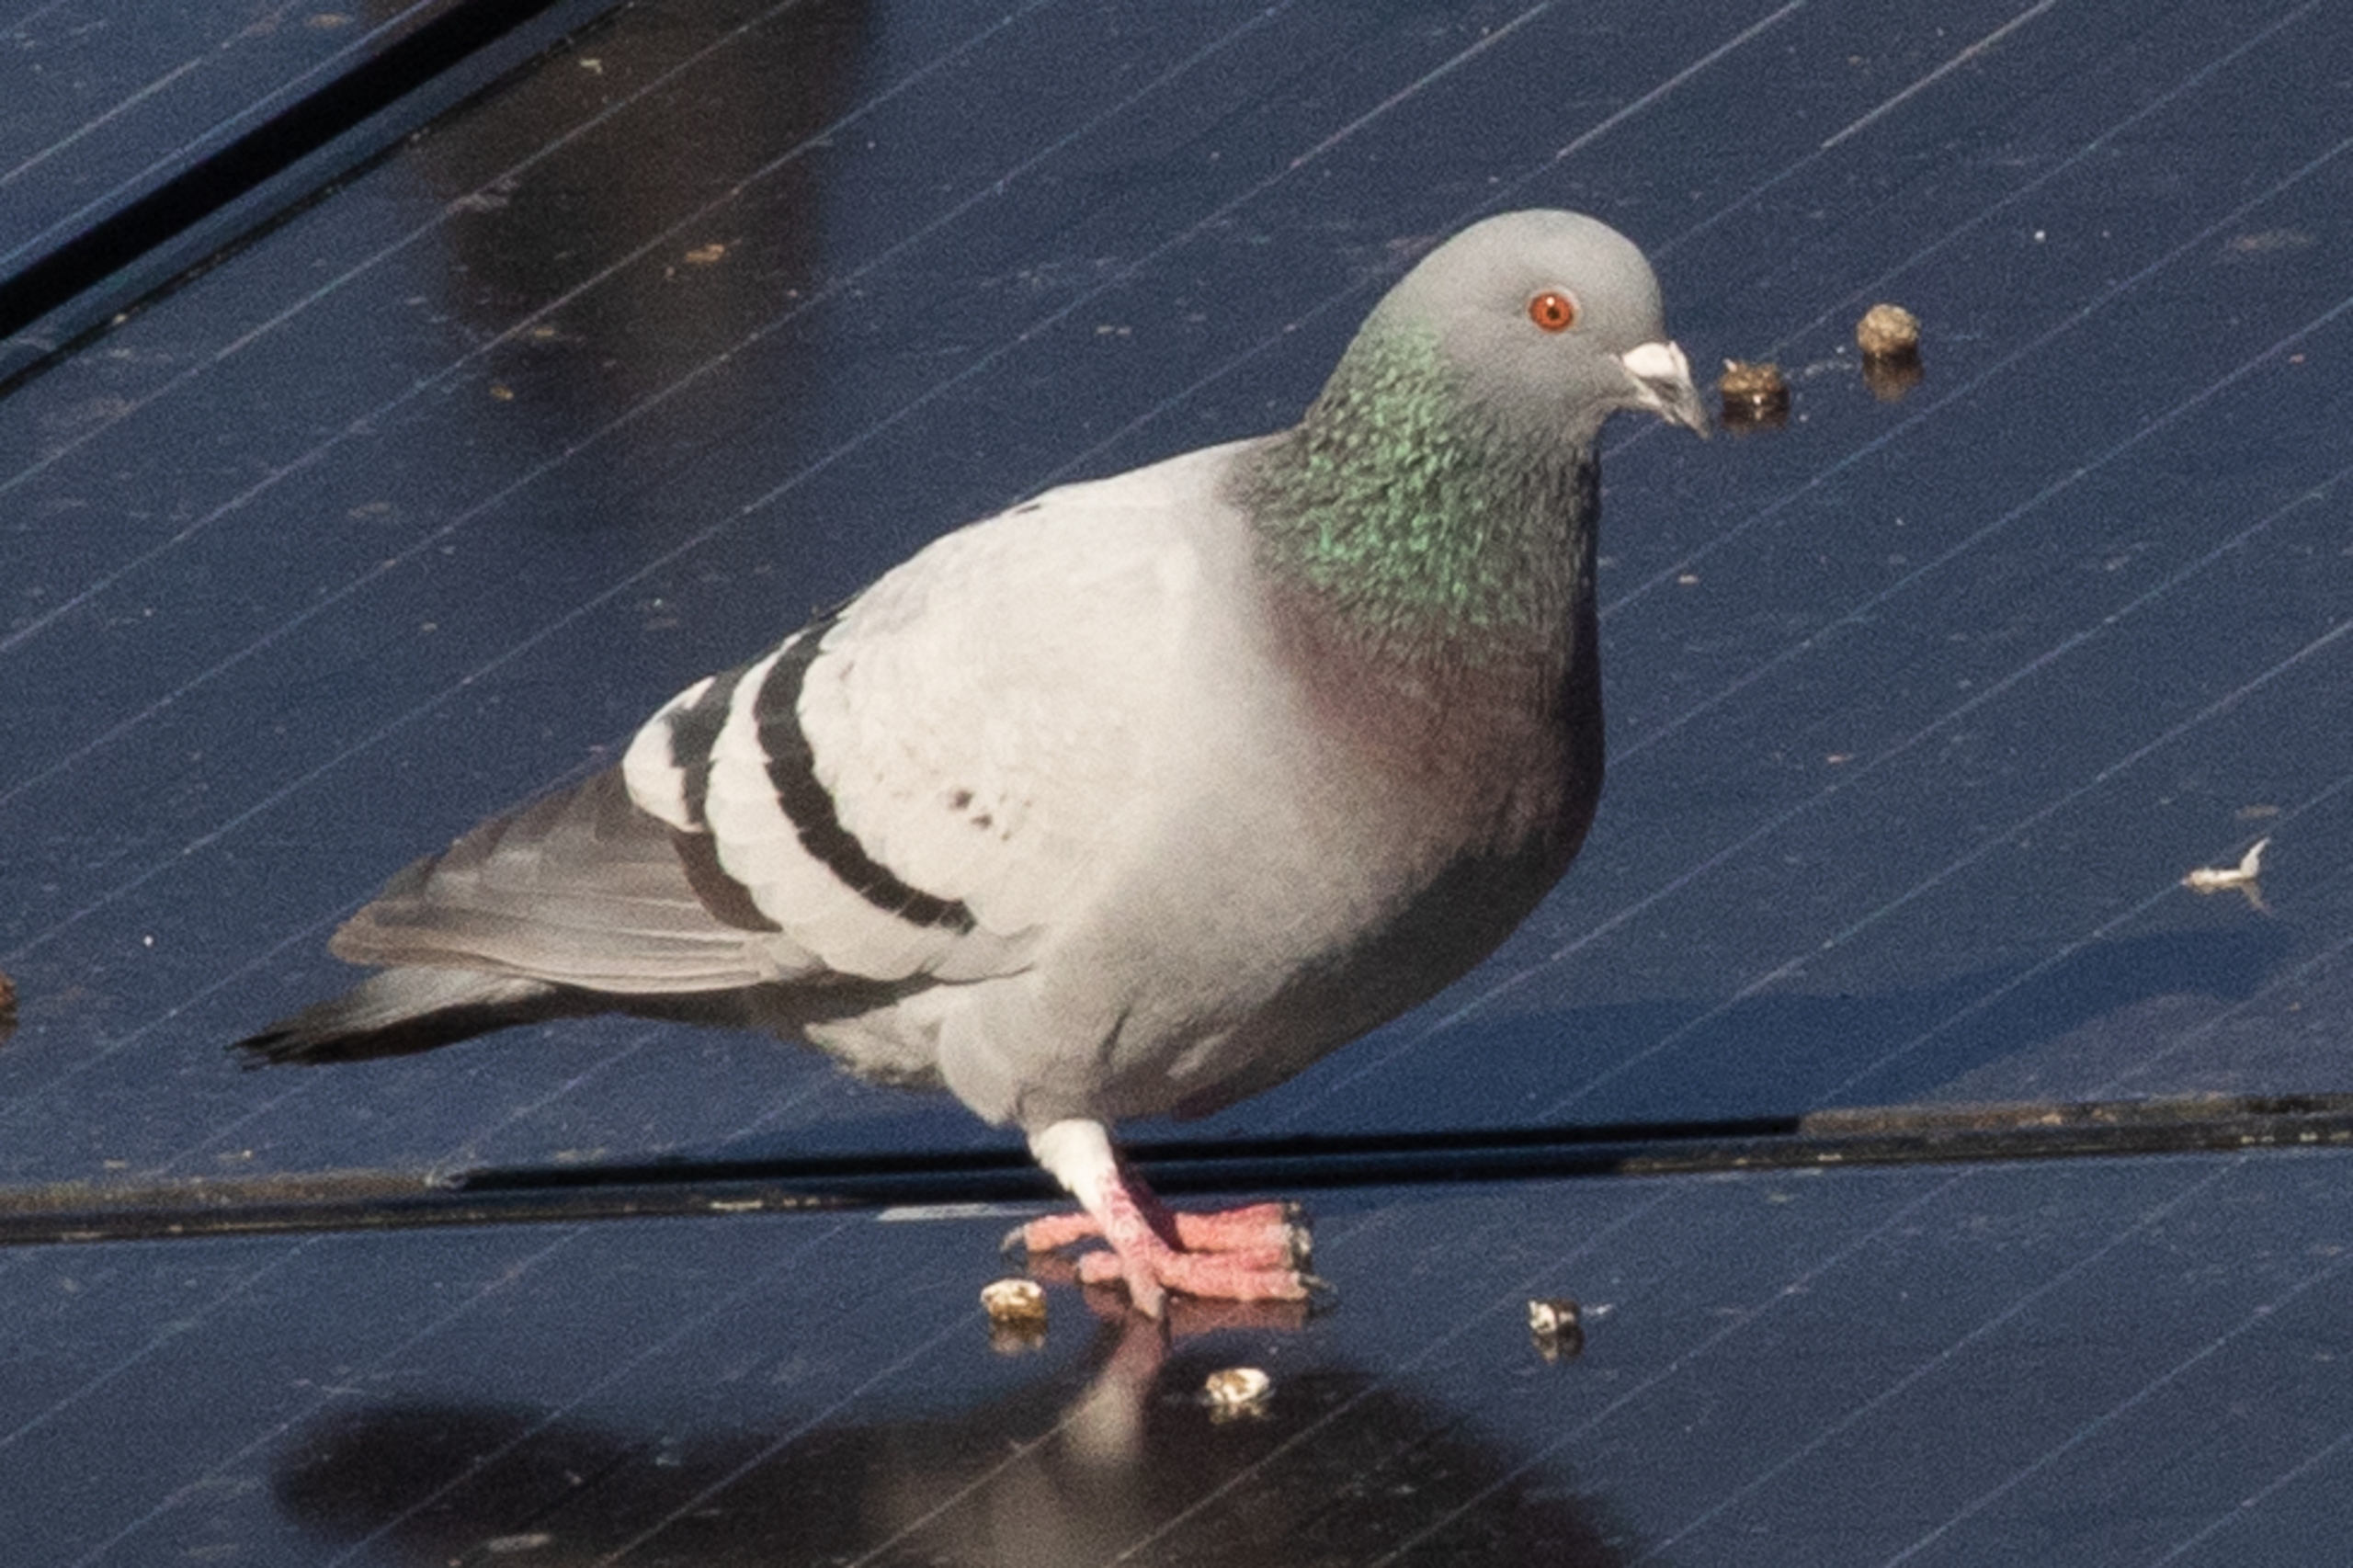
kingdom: Animalia
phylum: Chordata
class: Aves
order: Columbiformes
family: Columbidae
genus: Columba
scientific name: Columba livia
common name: Klippedue
